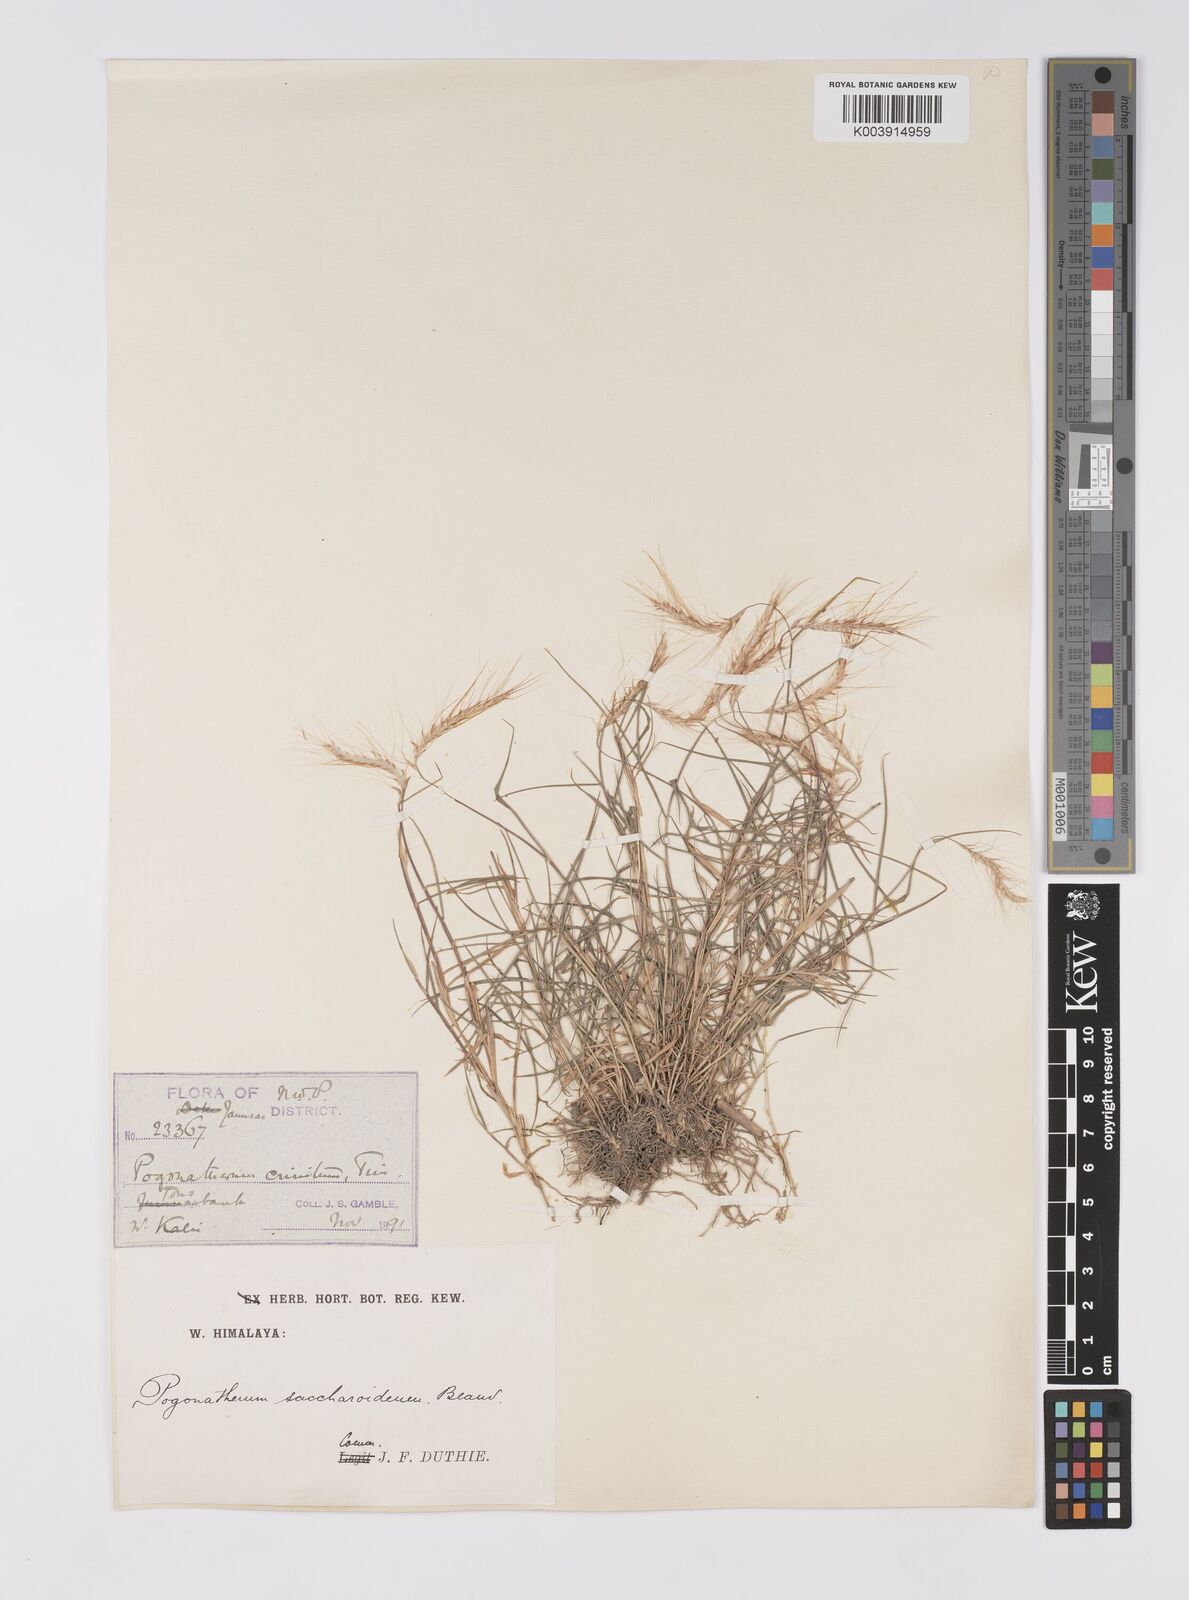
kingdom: Plantae
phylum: Tracheophyta
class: Liliopsida
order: Poales
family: Poaceae
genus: Pogonatherum
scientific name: Pogonatherum paniceum
